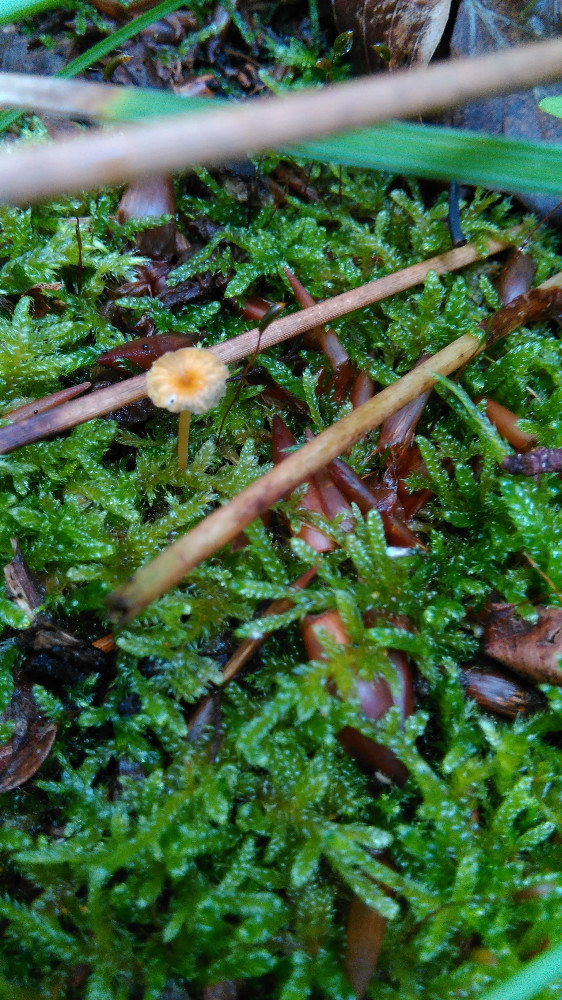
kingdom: Fungi
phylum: Basidiomycota
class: Agaricomycetes
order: Hymenochaetales
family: Rickenellaceae
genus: Rickenella
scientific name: Rickenella fibula
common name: orange mosnavlehat
